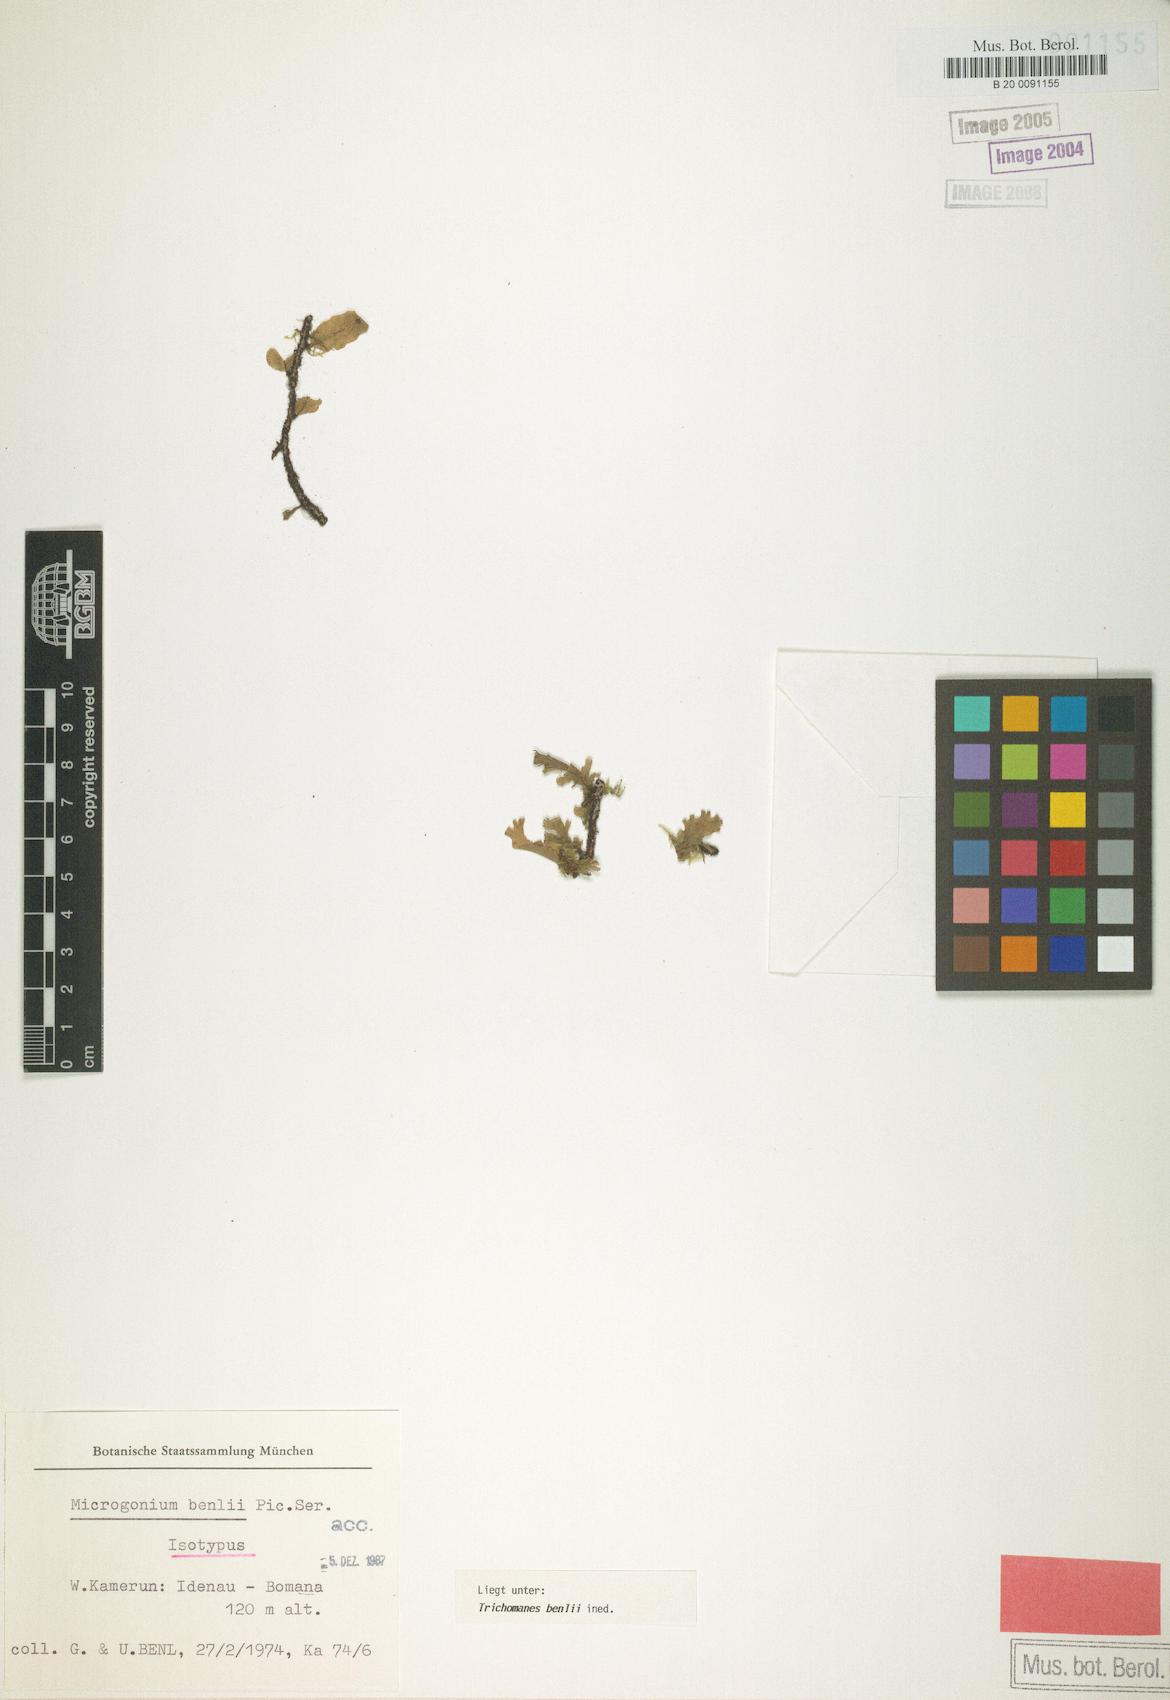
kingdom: Plantae
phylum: Tracheophyta
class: Polypodiopsida
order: Hymenophyllales
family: Hymenophyllaceae
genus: Didymoglossum
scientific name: Didymoglossum benlii
